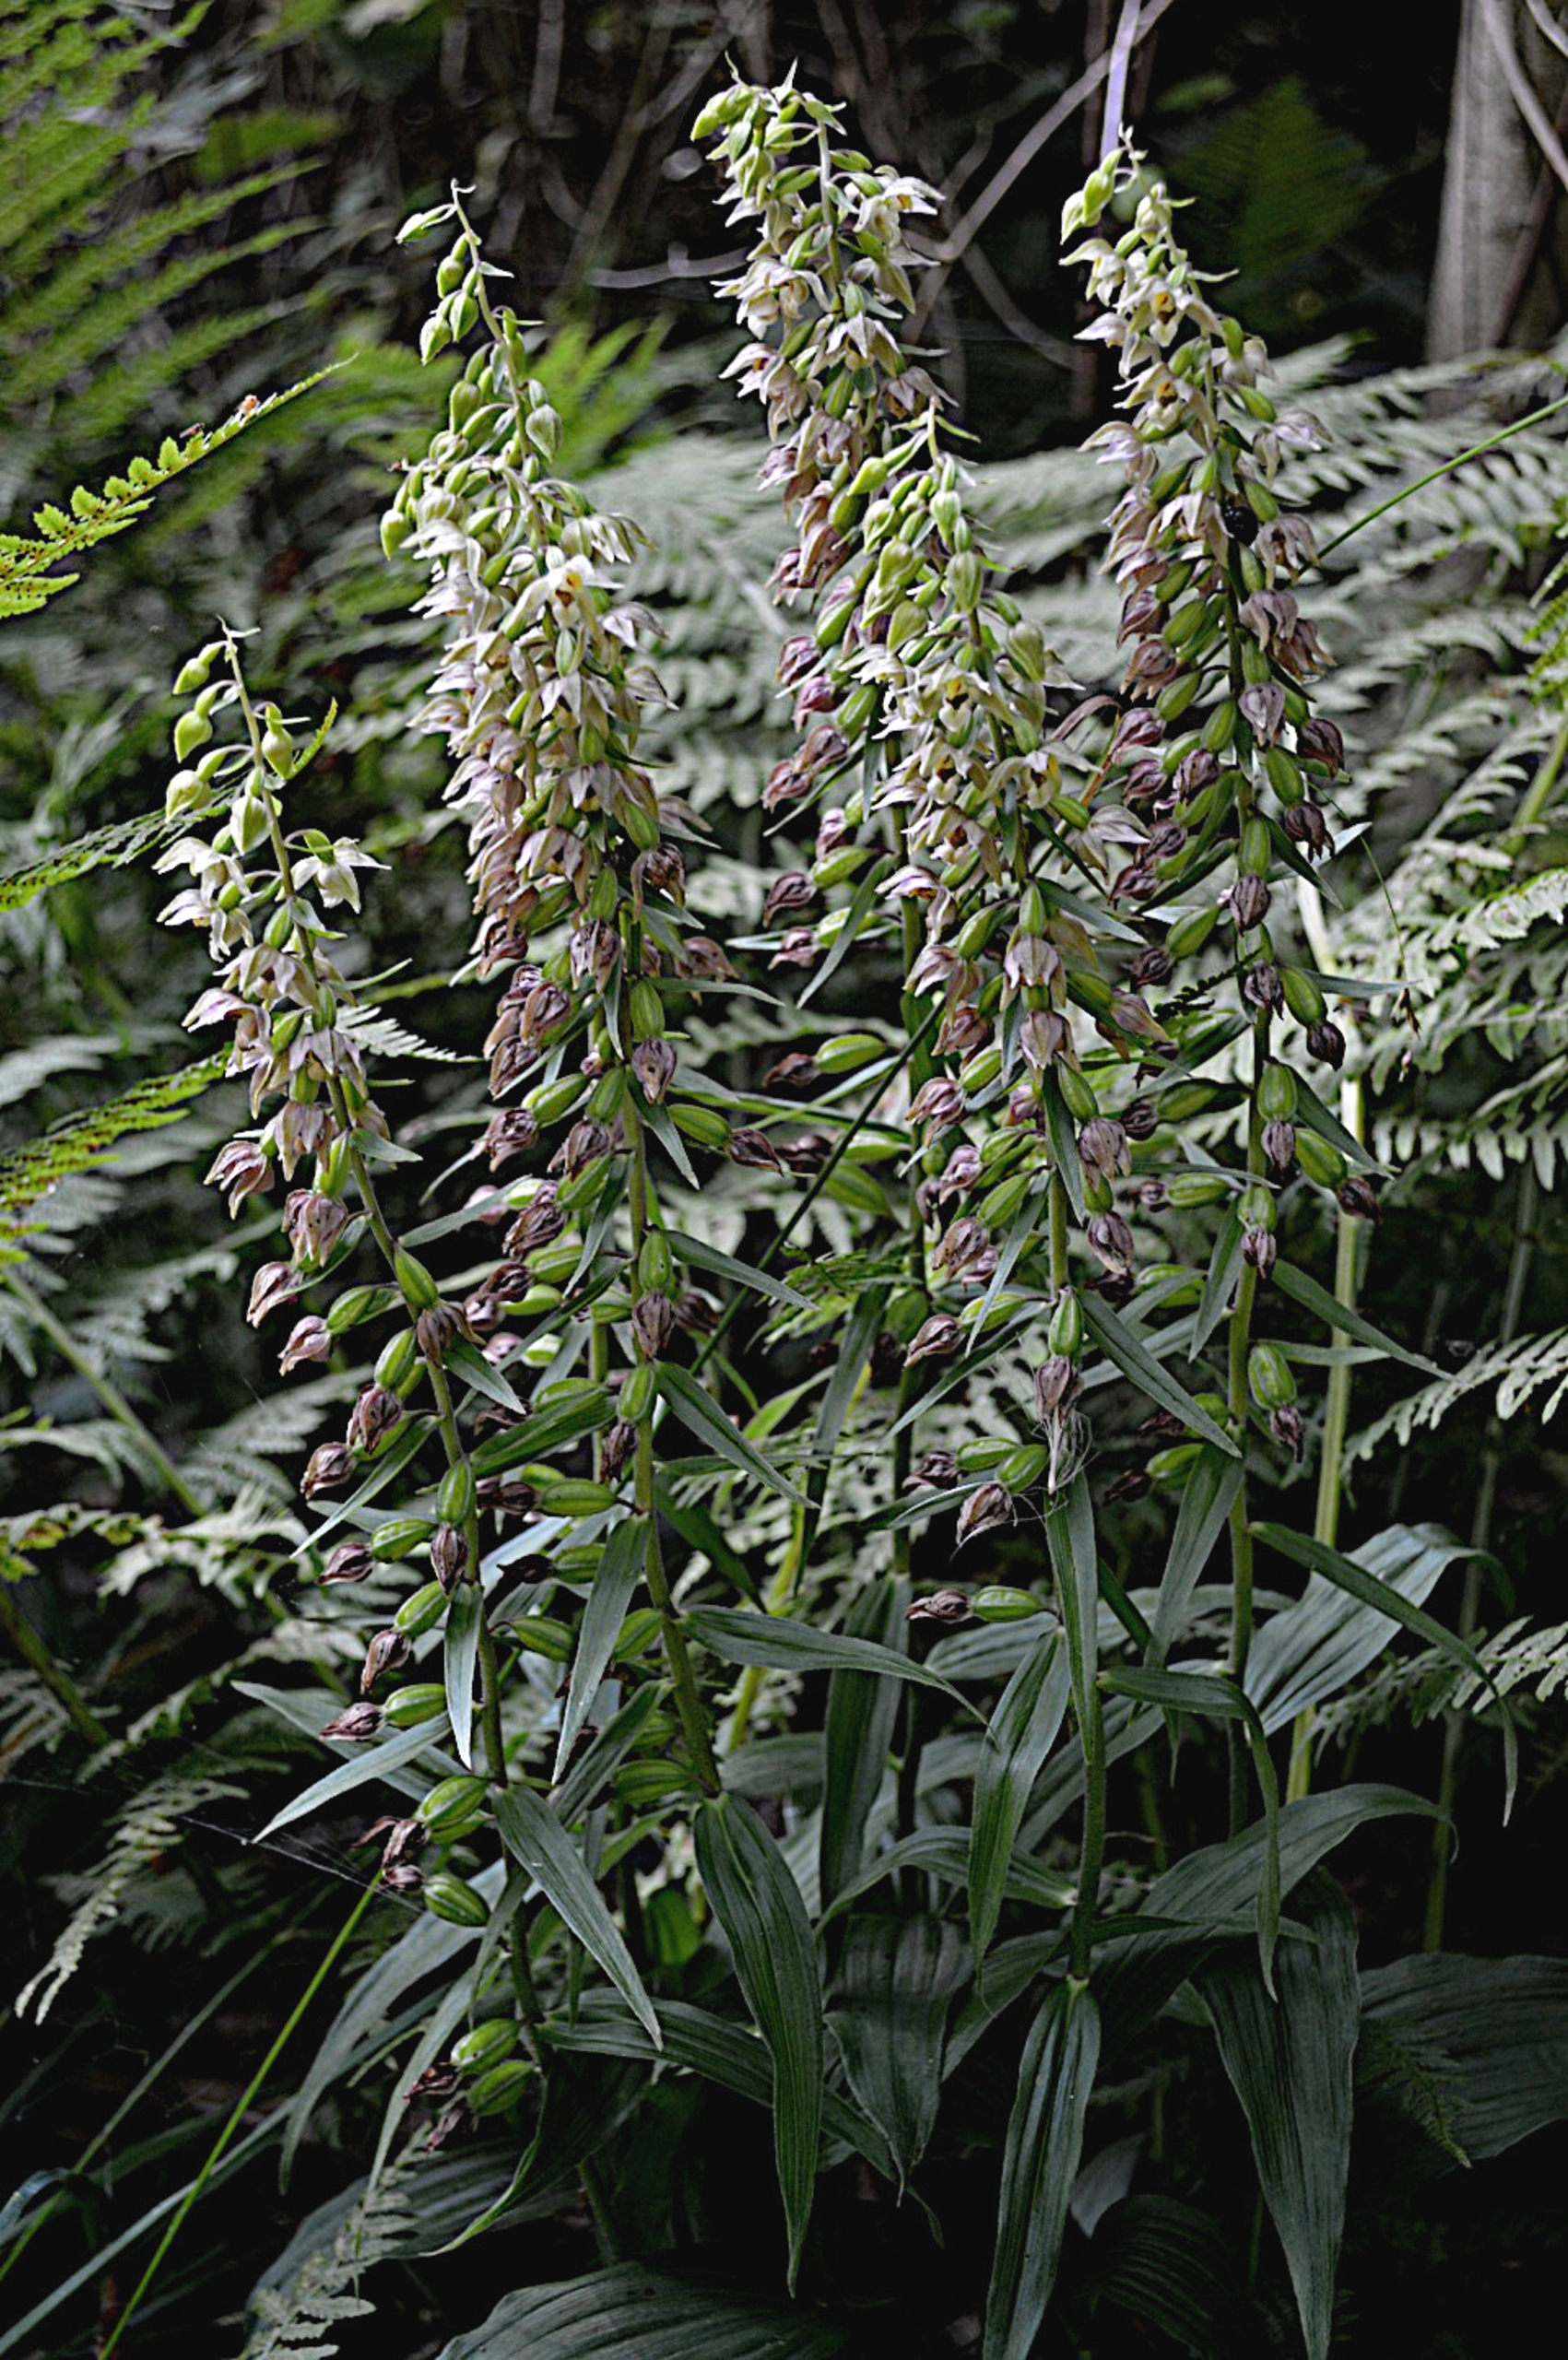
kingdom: Plantae
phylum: Tracheophyta
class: Liliopsida
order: Asparagales
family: Orchidaceae
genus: Epipactis
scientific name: Epipactis helleborine
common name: Skov-hullæbe
